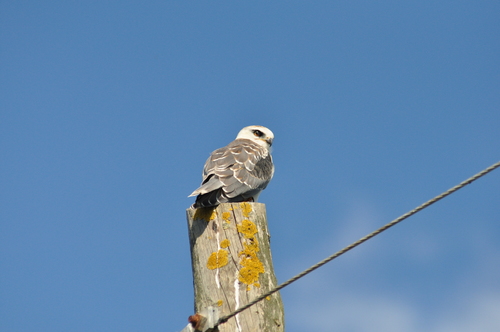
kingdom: Animalia
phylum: Chordata
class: Aves
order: Accipitriformes
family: Accipitridae
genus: Elanus
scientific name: Elanus caeruleus
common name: Black-winged kite
